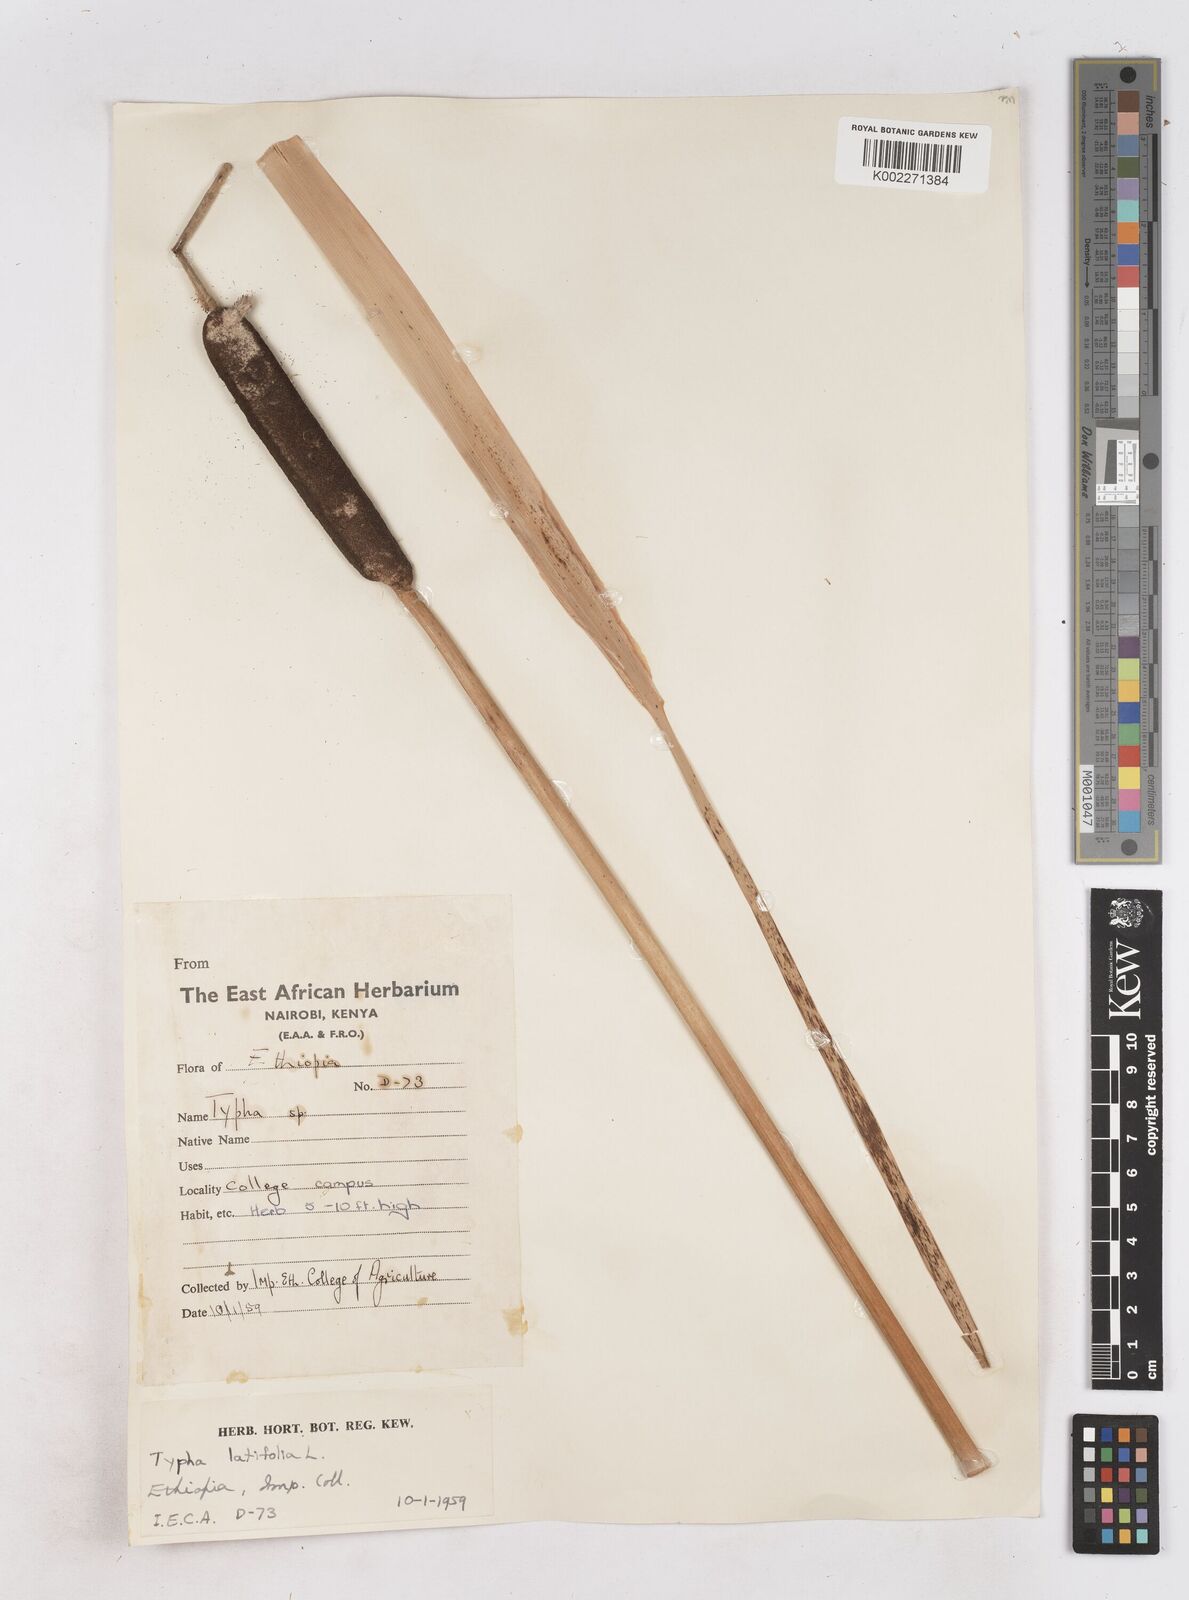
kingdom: Plantae
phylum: Tracheophyta
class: Liliopsida
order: Poales
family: Typhaceae
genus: Typha
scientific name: Typha latifolia
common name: Broadleaf cattail
